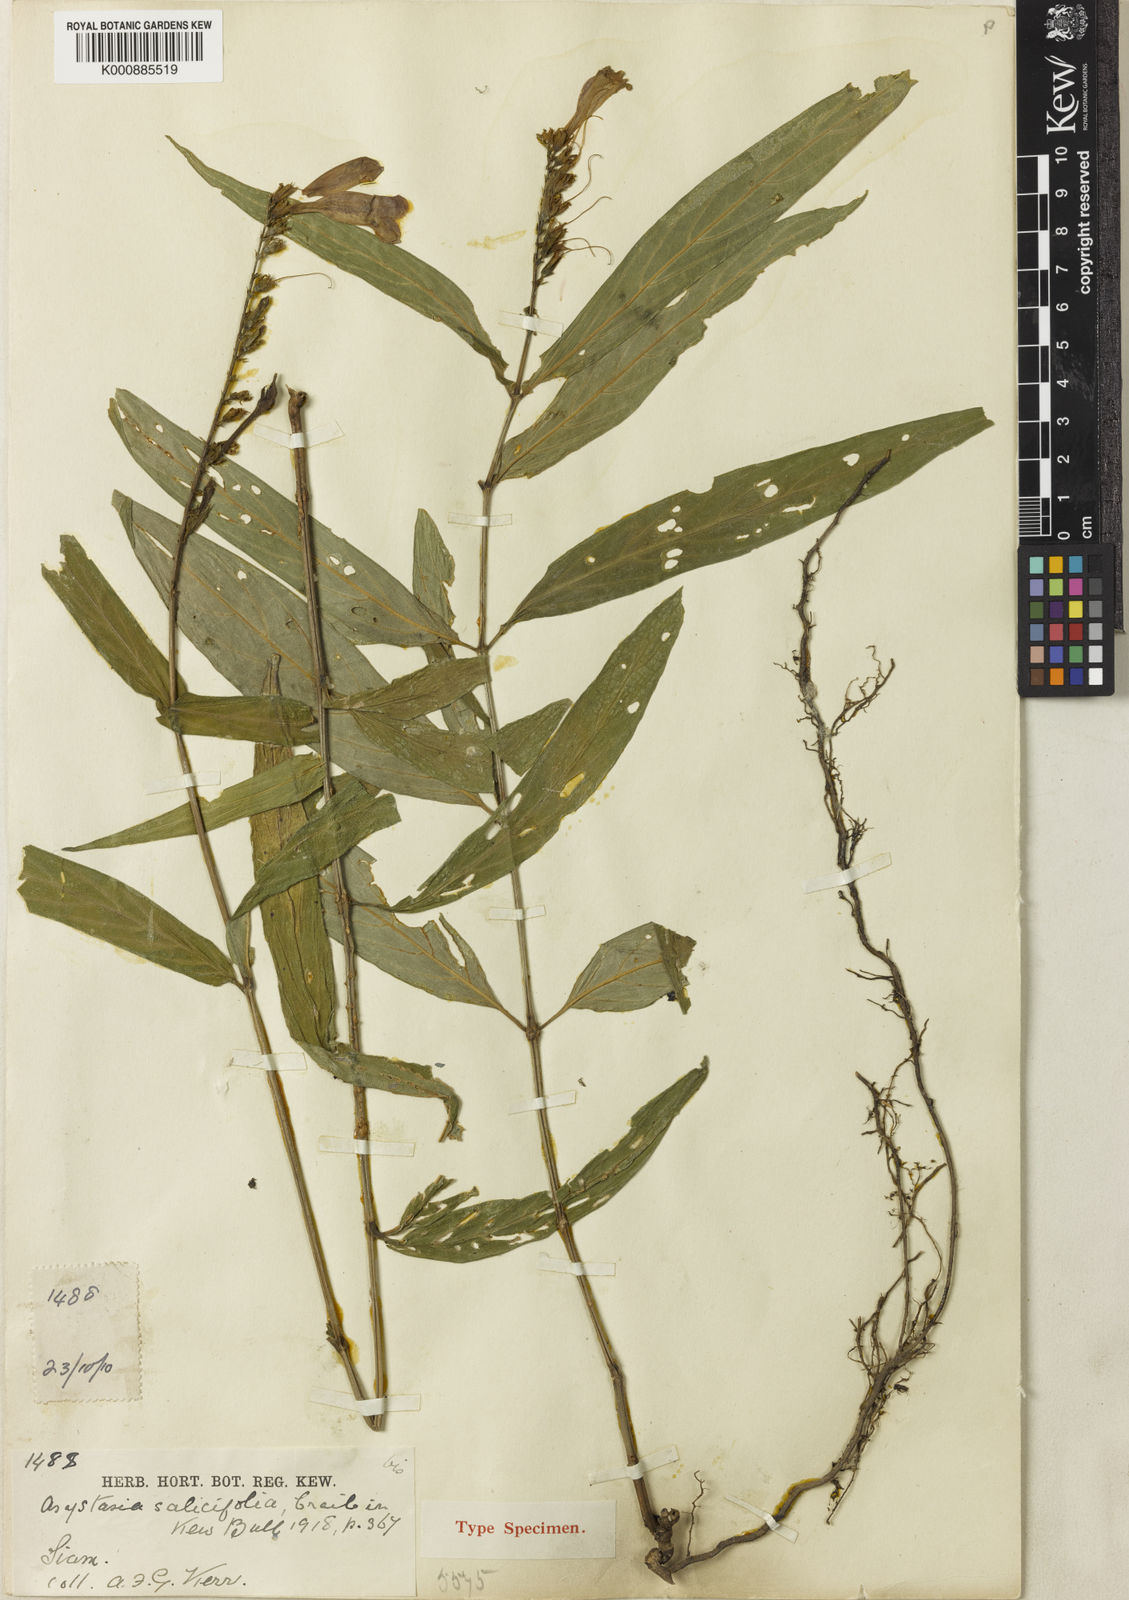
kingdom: Plantae
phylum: Tracheophyta
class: Magnoliopsida
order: Lamiales
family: Acanthaceae
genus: Asystasia
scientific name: Asystasia nemorum
